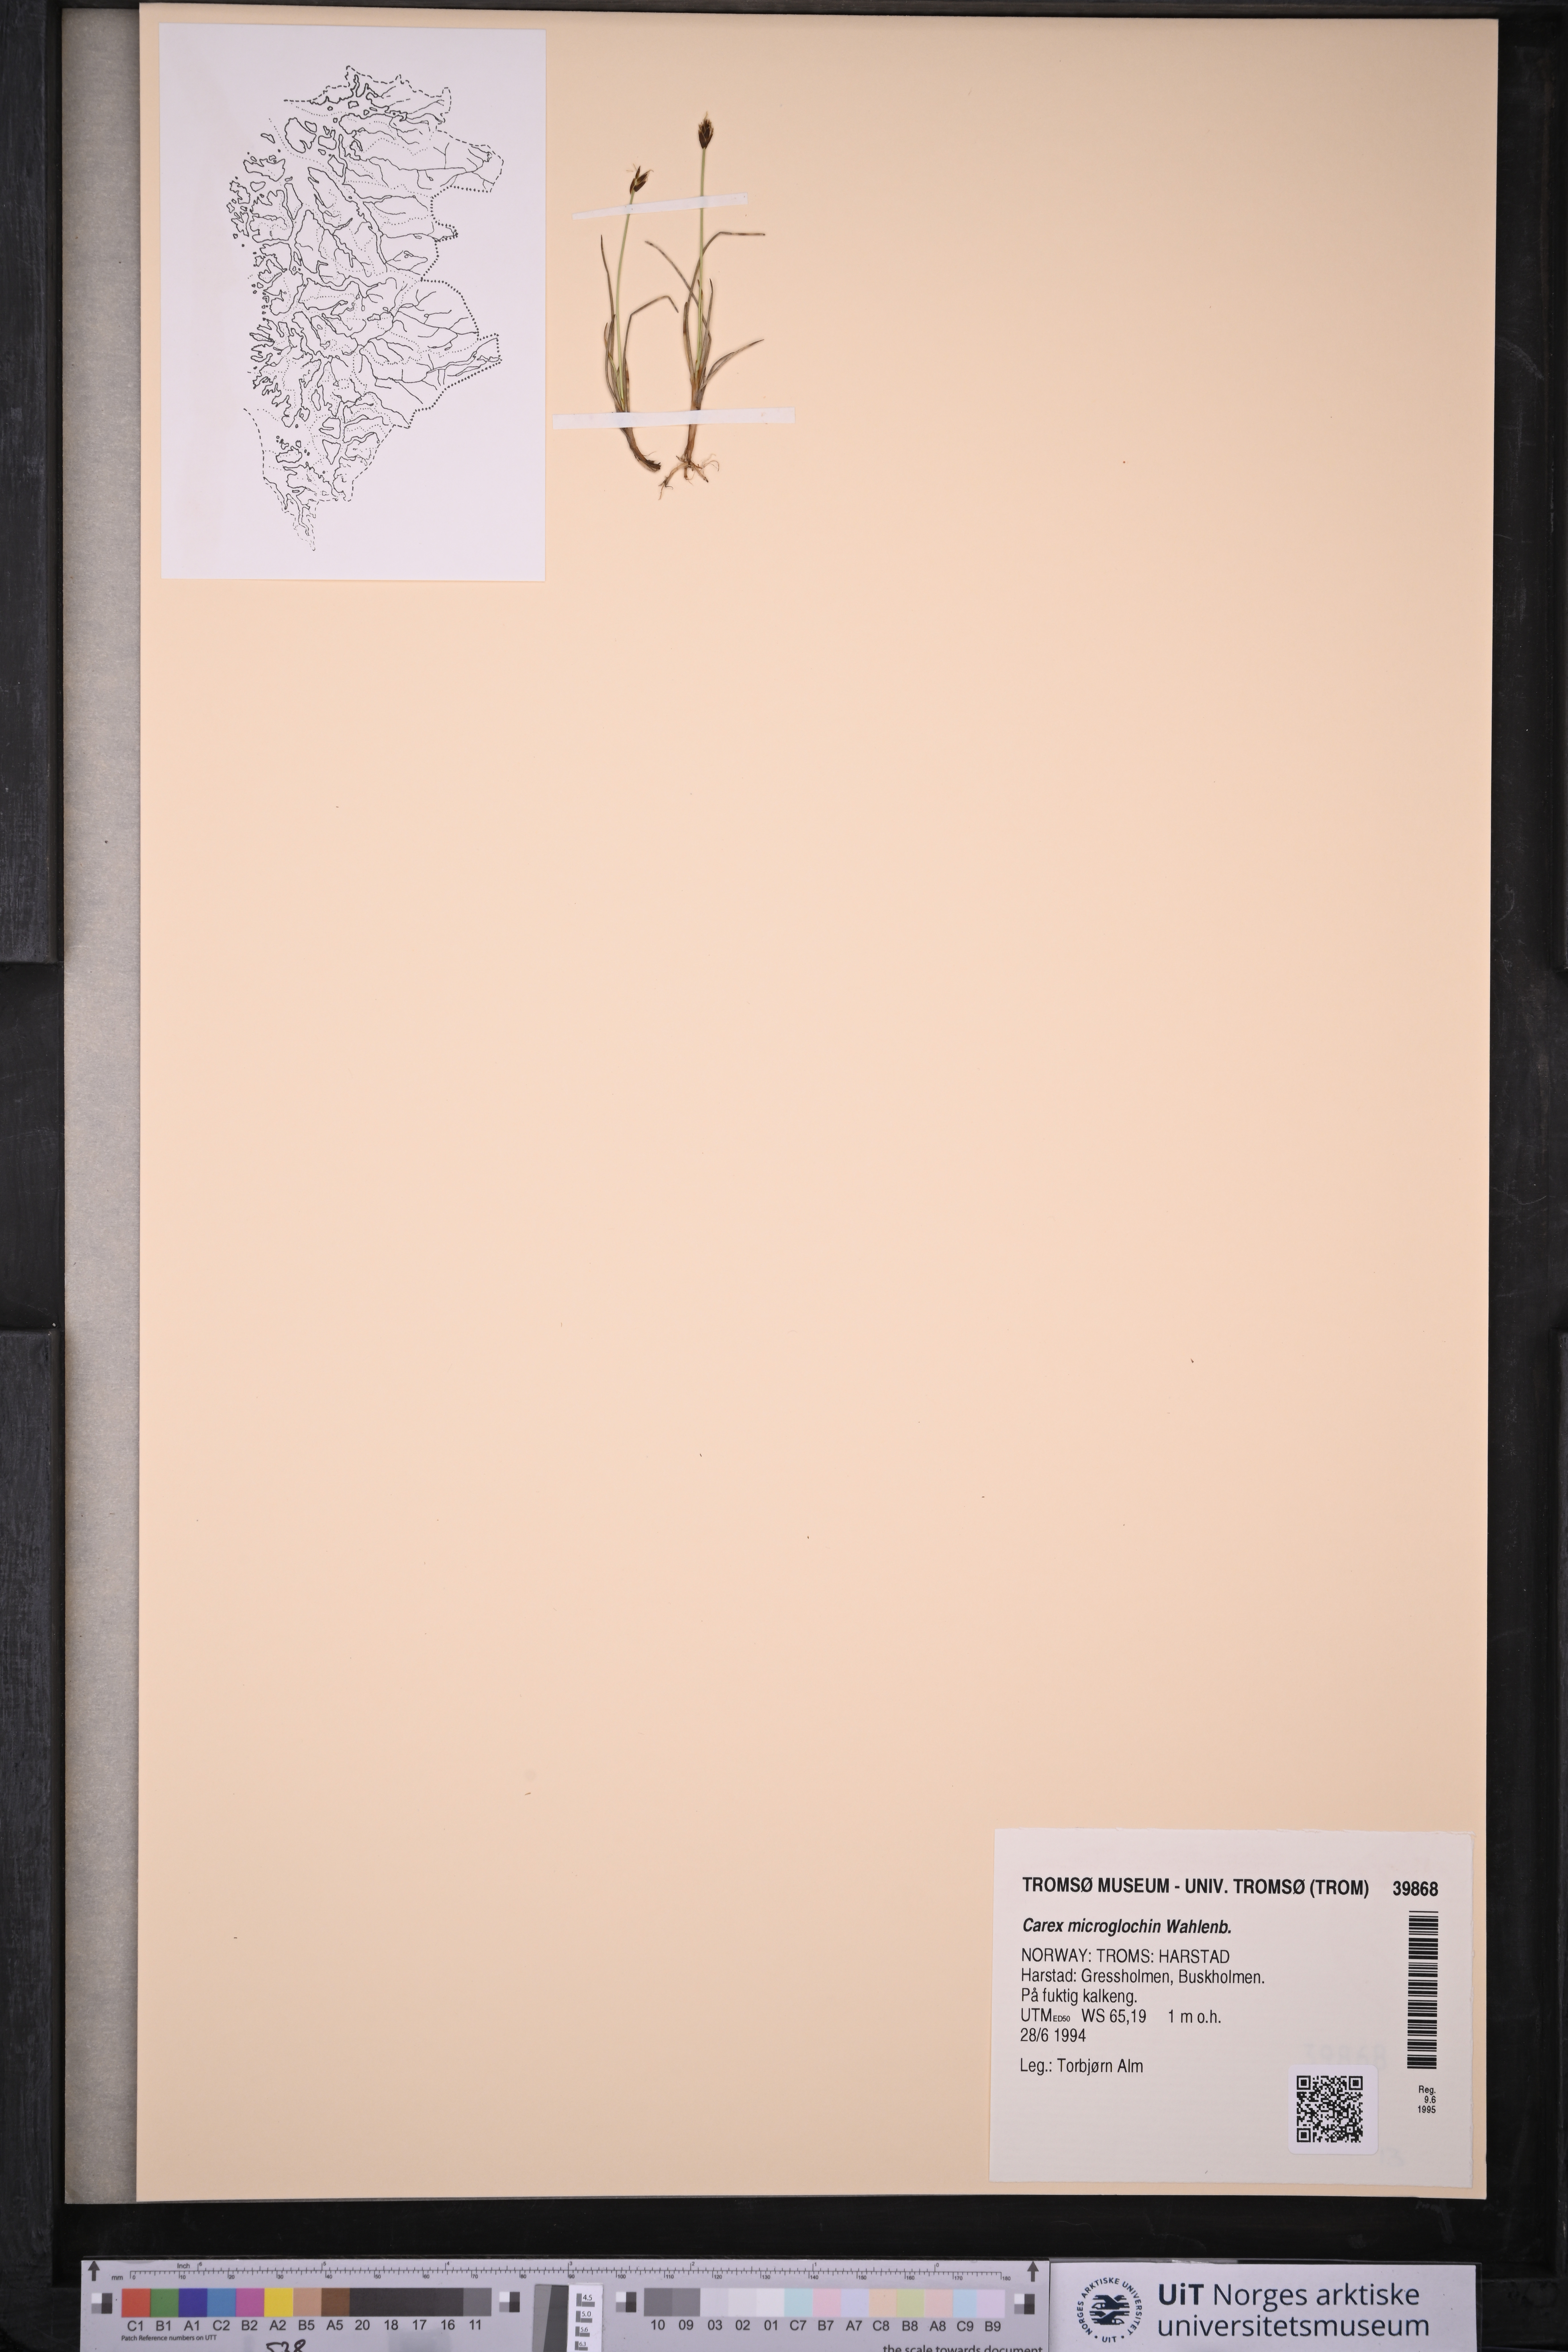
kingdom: Plantae
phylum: Tracheophyta
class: Liliopsida
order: Poales
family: Cyperaceae
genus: Carex
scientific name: Carex microglochin
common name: Bristle sedge
